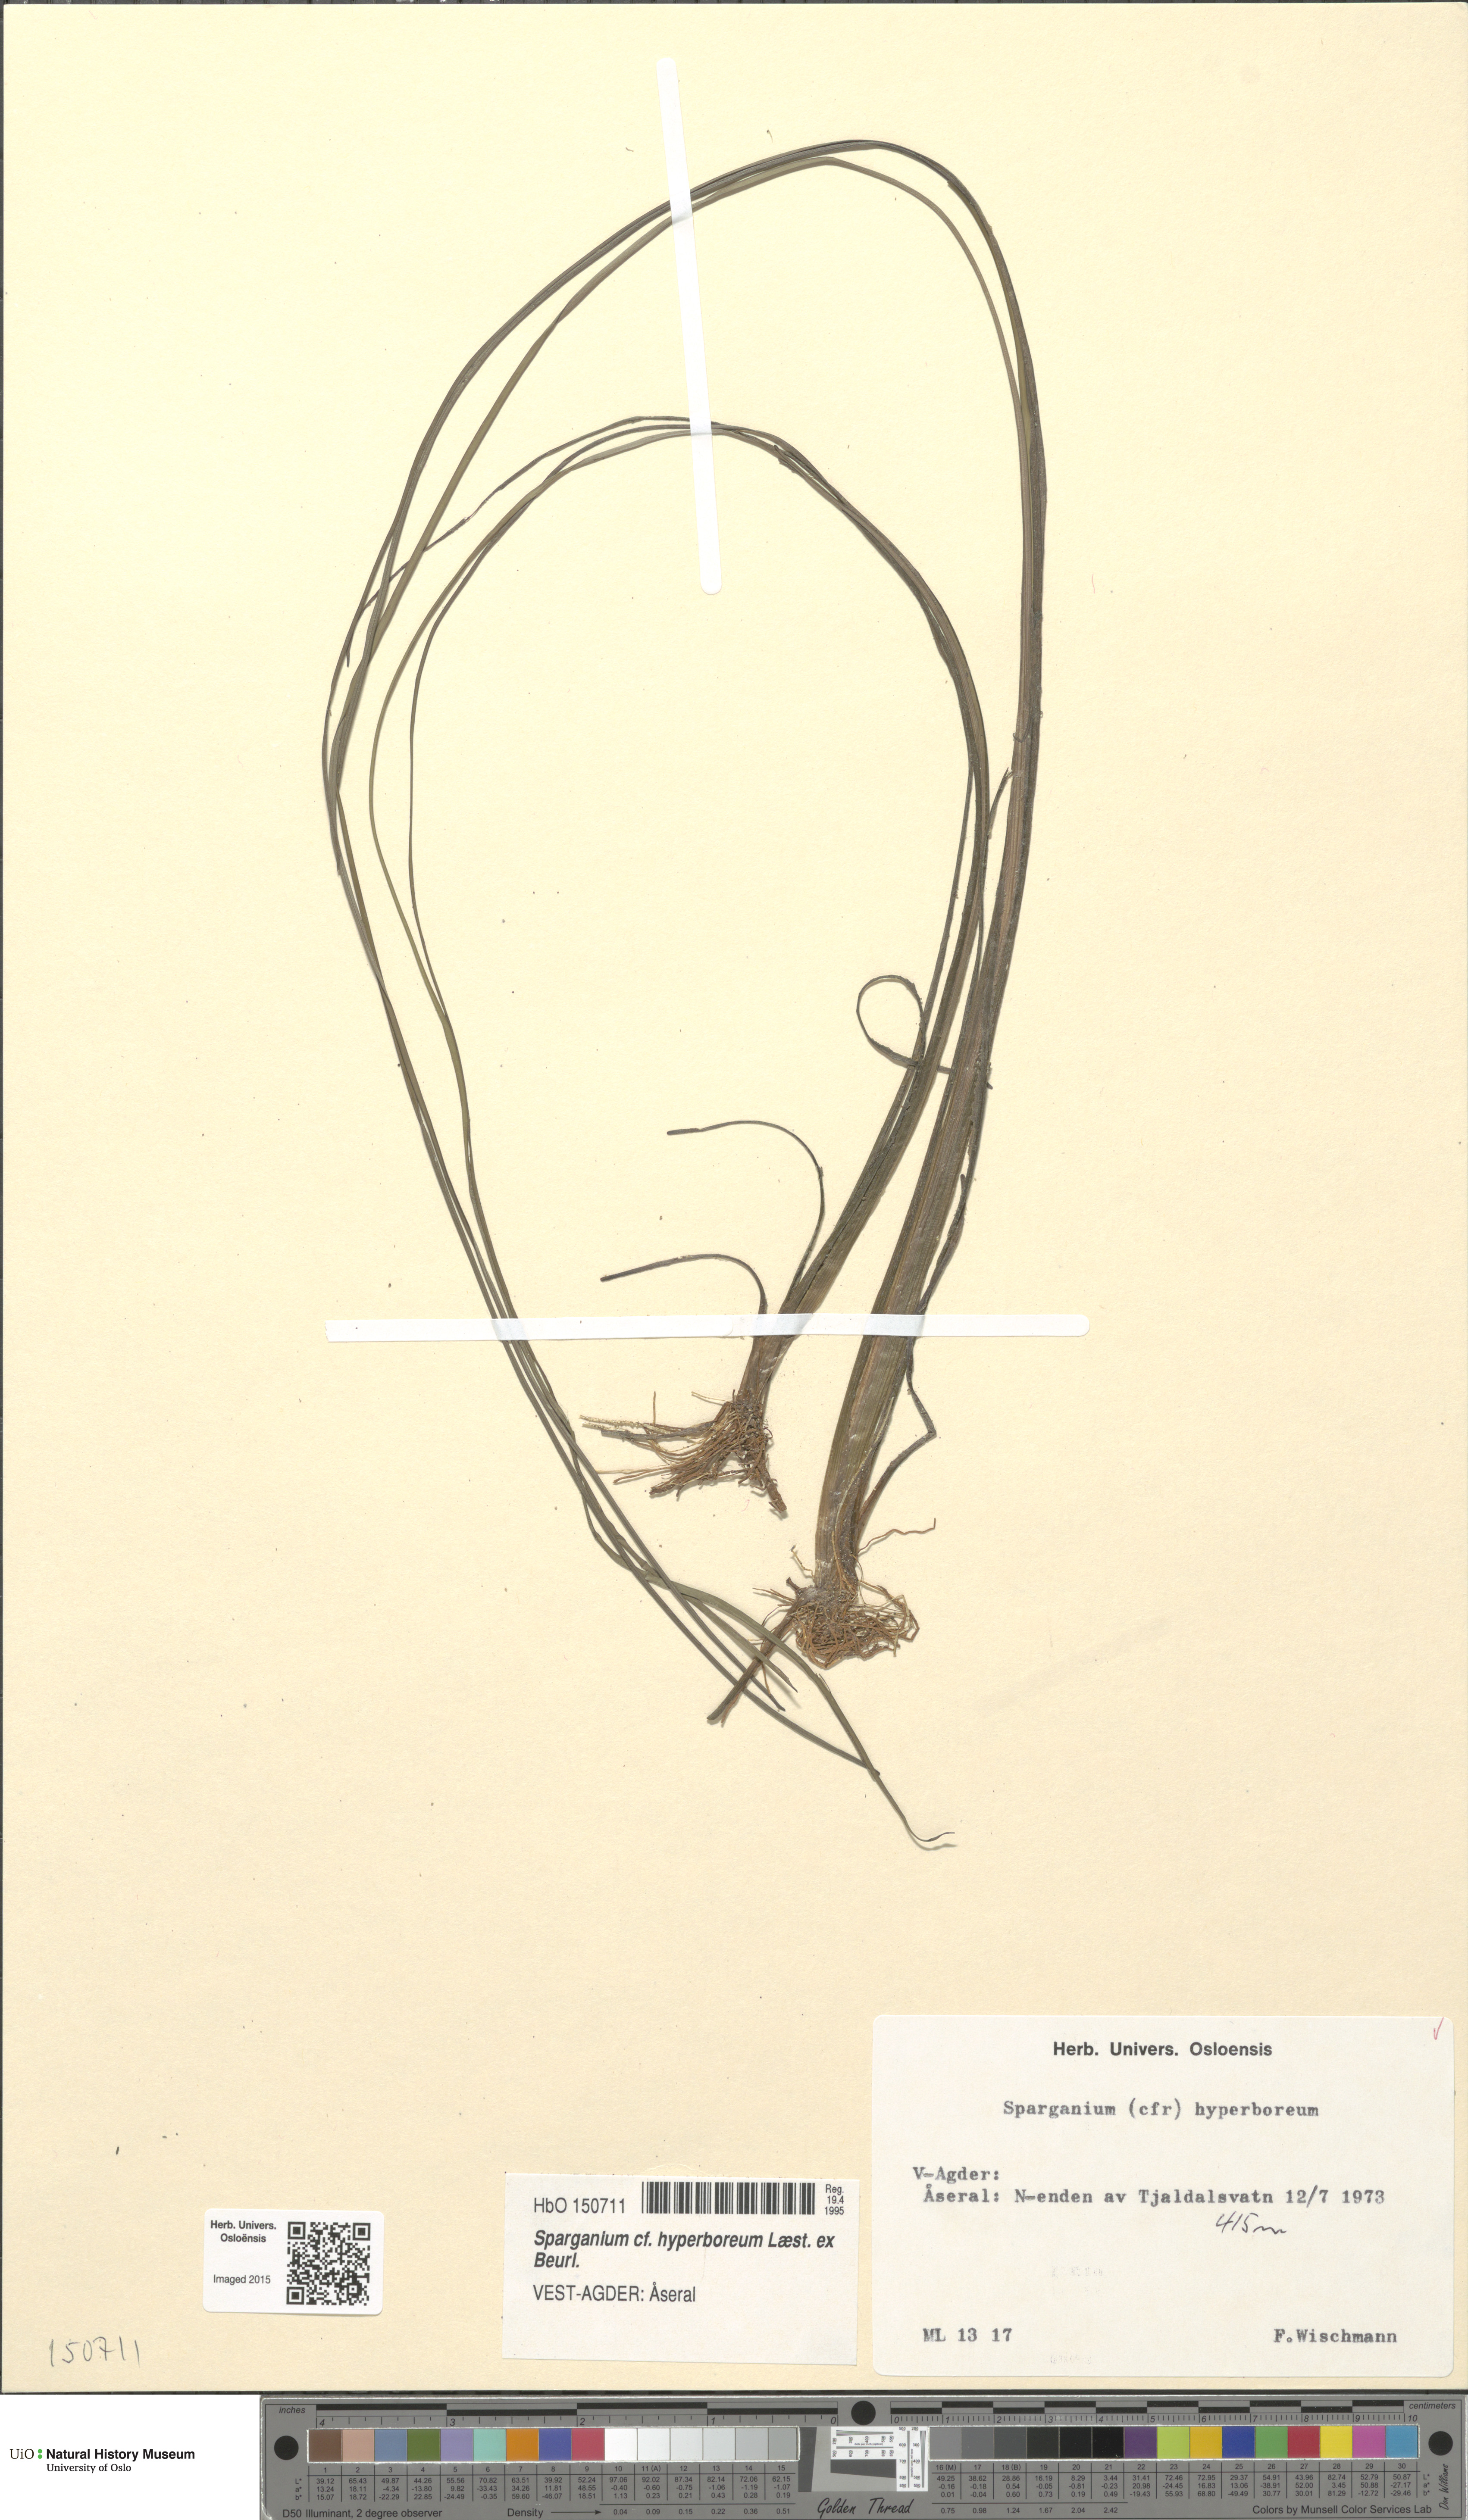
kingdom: Plantae
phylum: Tracheophyta
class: Liliopsida
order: Poales
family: Typhaceae
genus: Sparganium
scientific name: Sparganium hyperboreum
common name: Arctic burreed
